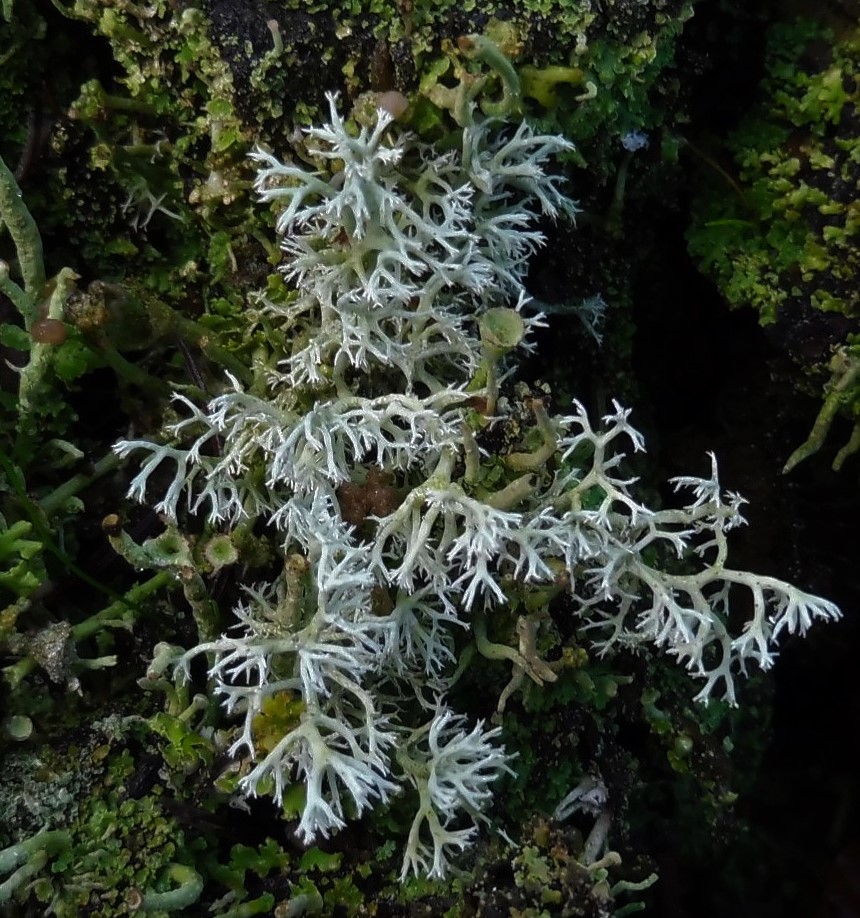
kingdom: Fungi
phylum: Ascomycota
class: Lecanoromycetes
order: Lecanorales
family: Cladoniaceae
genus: Cladonia
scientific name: Cladonia rangiferina
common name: askegrå rensdyrlav
